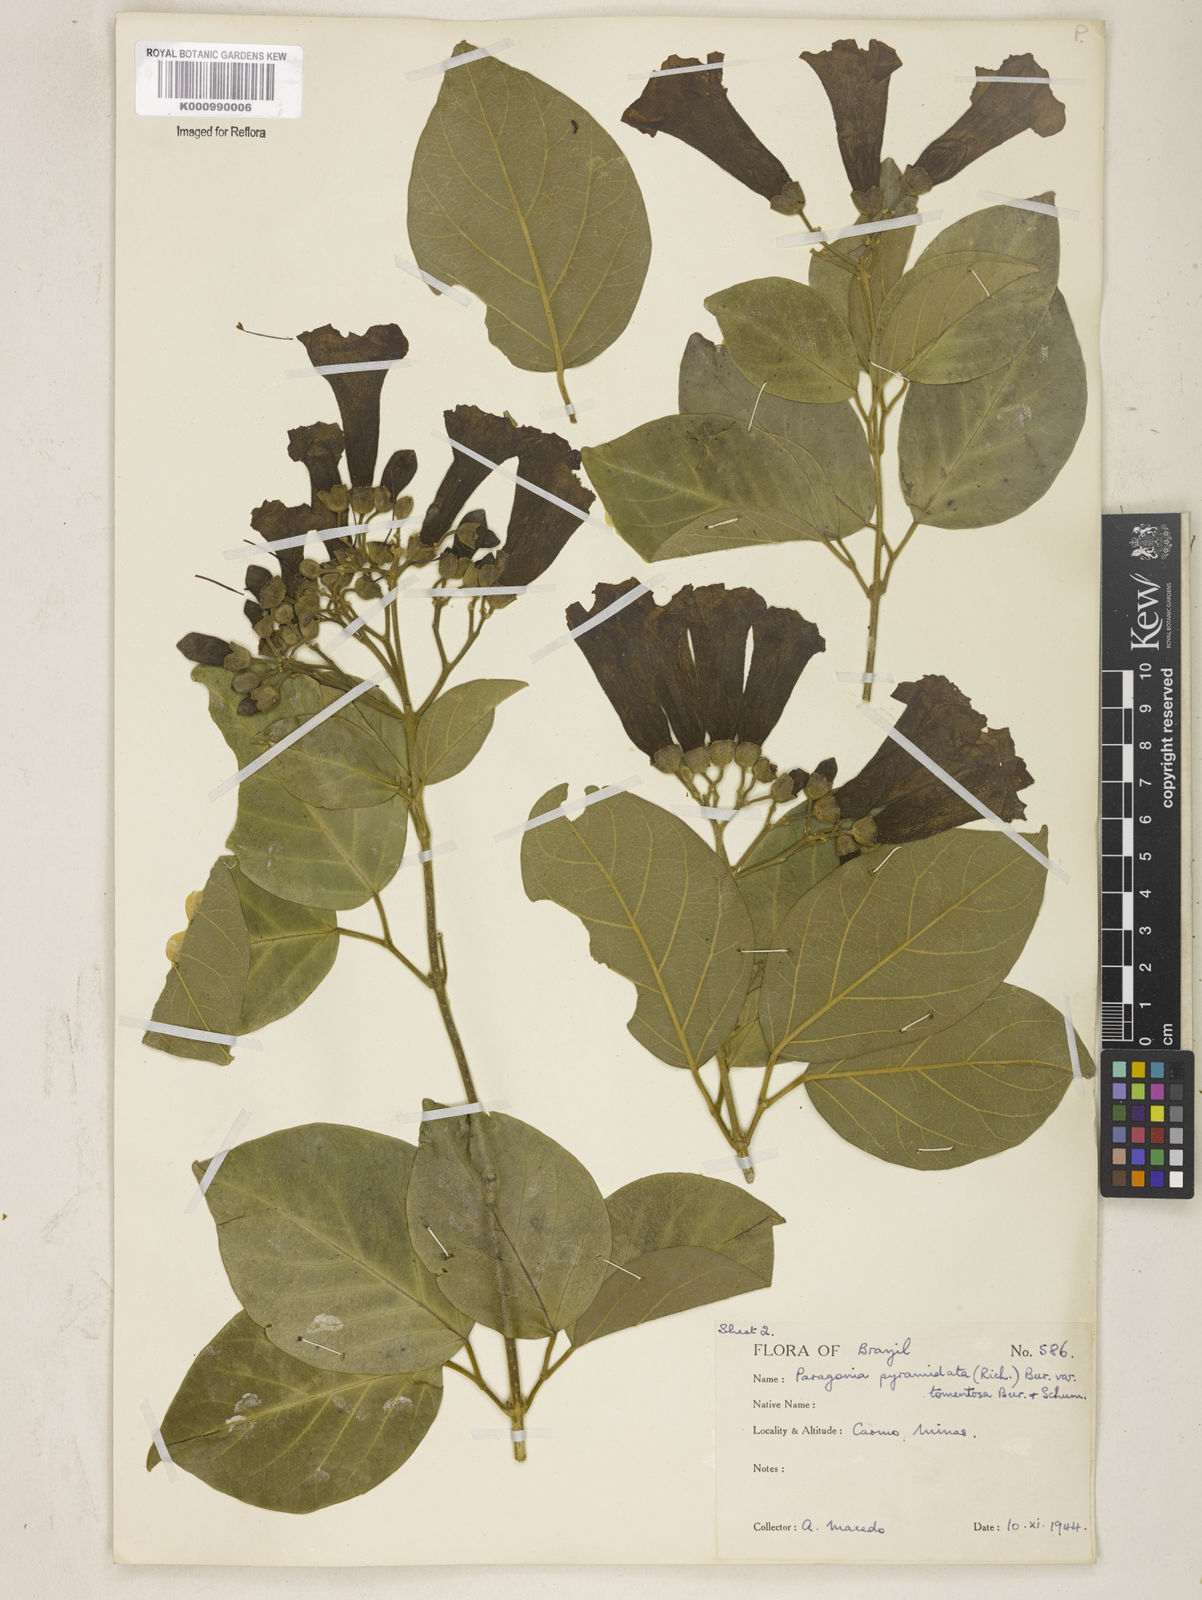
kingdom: Plantae
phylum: Tracheophyta
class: Magnoliopsida
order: Lamiales
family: Bignoniaceae
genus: Tanaecium
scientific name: Tanaecium pyramidatum
